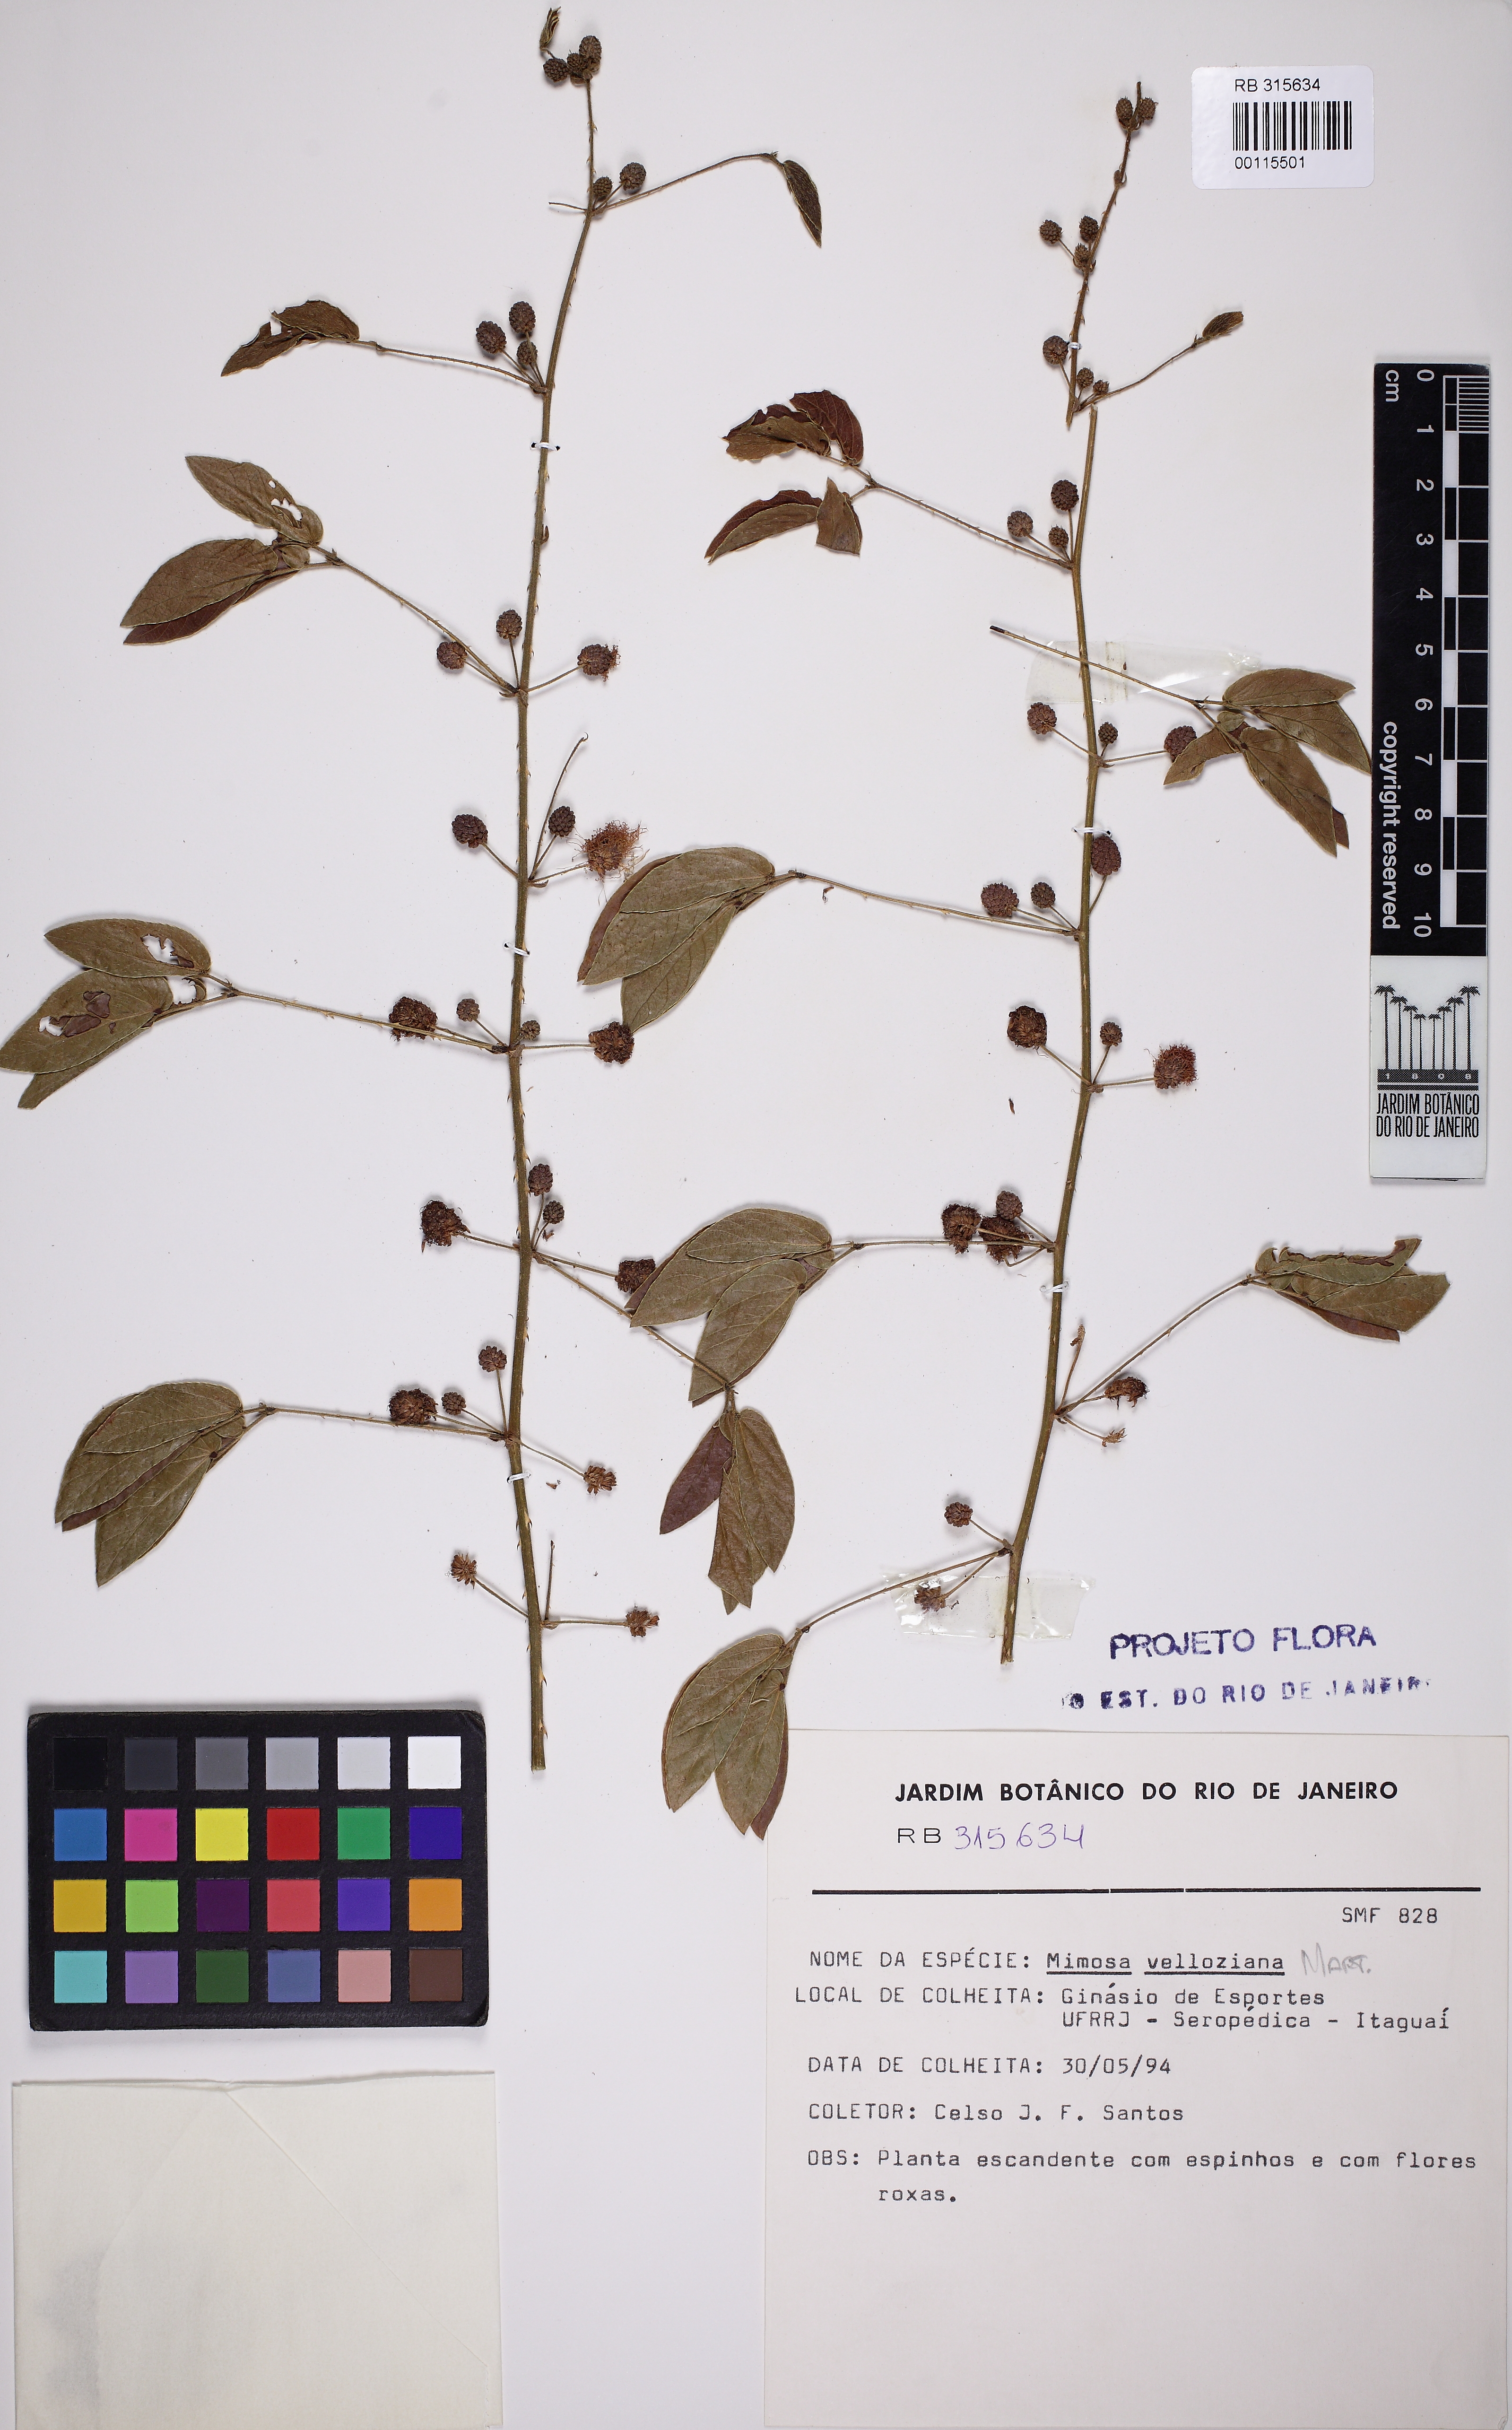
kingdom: Plantae
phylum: Tracheophyta
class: Magnoliopsida
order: Fabales
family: Fabaceae
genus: Mimosa
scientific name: Mimosa velloziana
